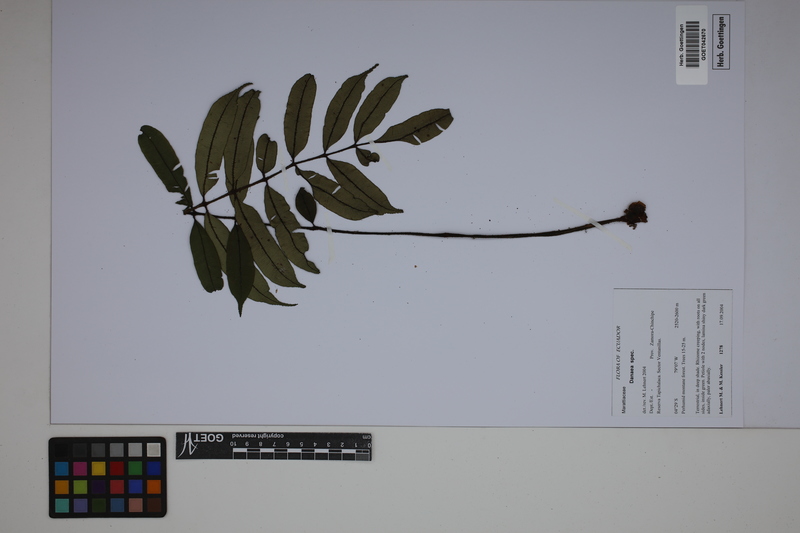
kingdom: Plantae
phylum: Tracheophyta
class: Polypodiopsida
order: Marattiales
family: Marattiaceae
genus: Danaea
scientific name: Danaea
